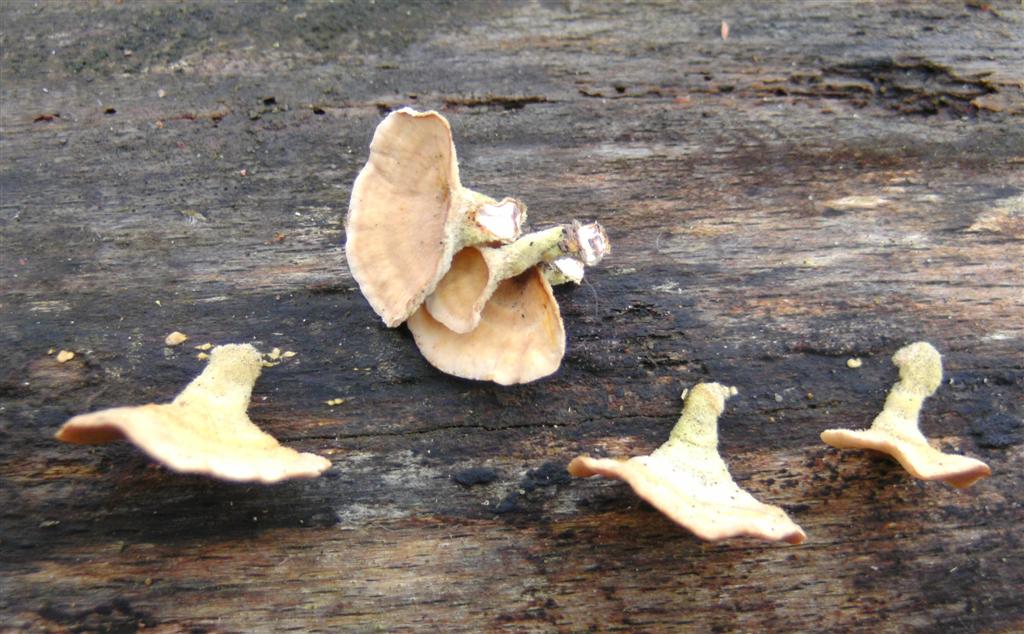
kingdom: Fungi
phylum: Basidiomycota
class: Agaricomycetes
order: Russulales
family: Stereaceae
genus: Stereum
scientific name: Stereum subtomentosum
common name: smuk lædersvamp
